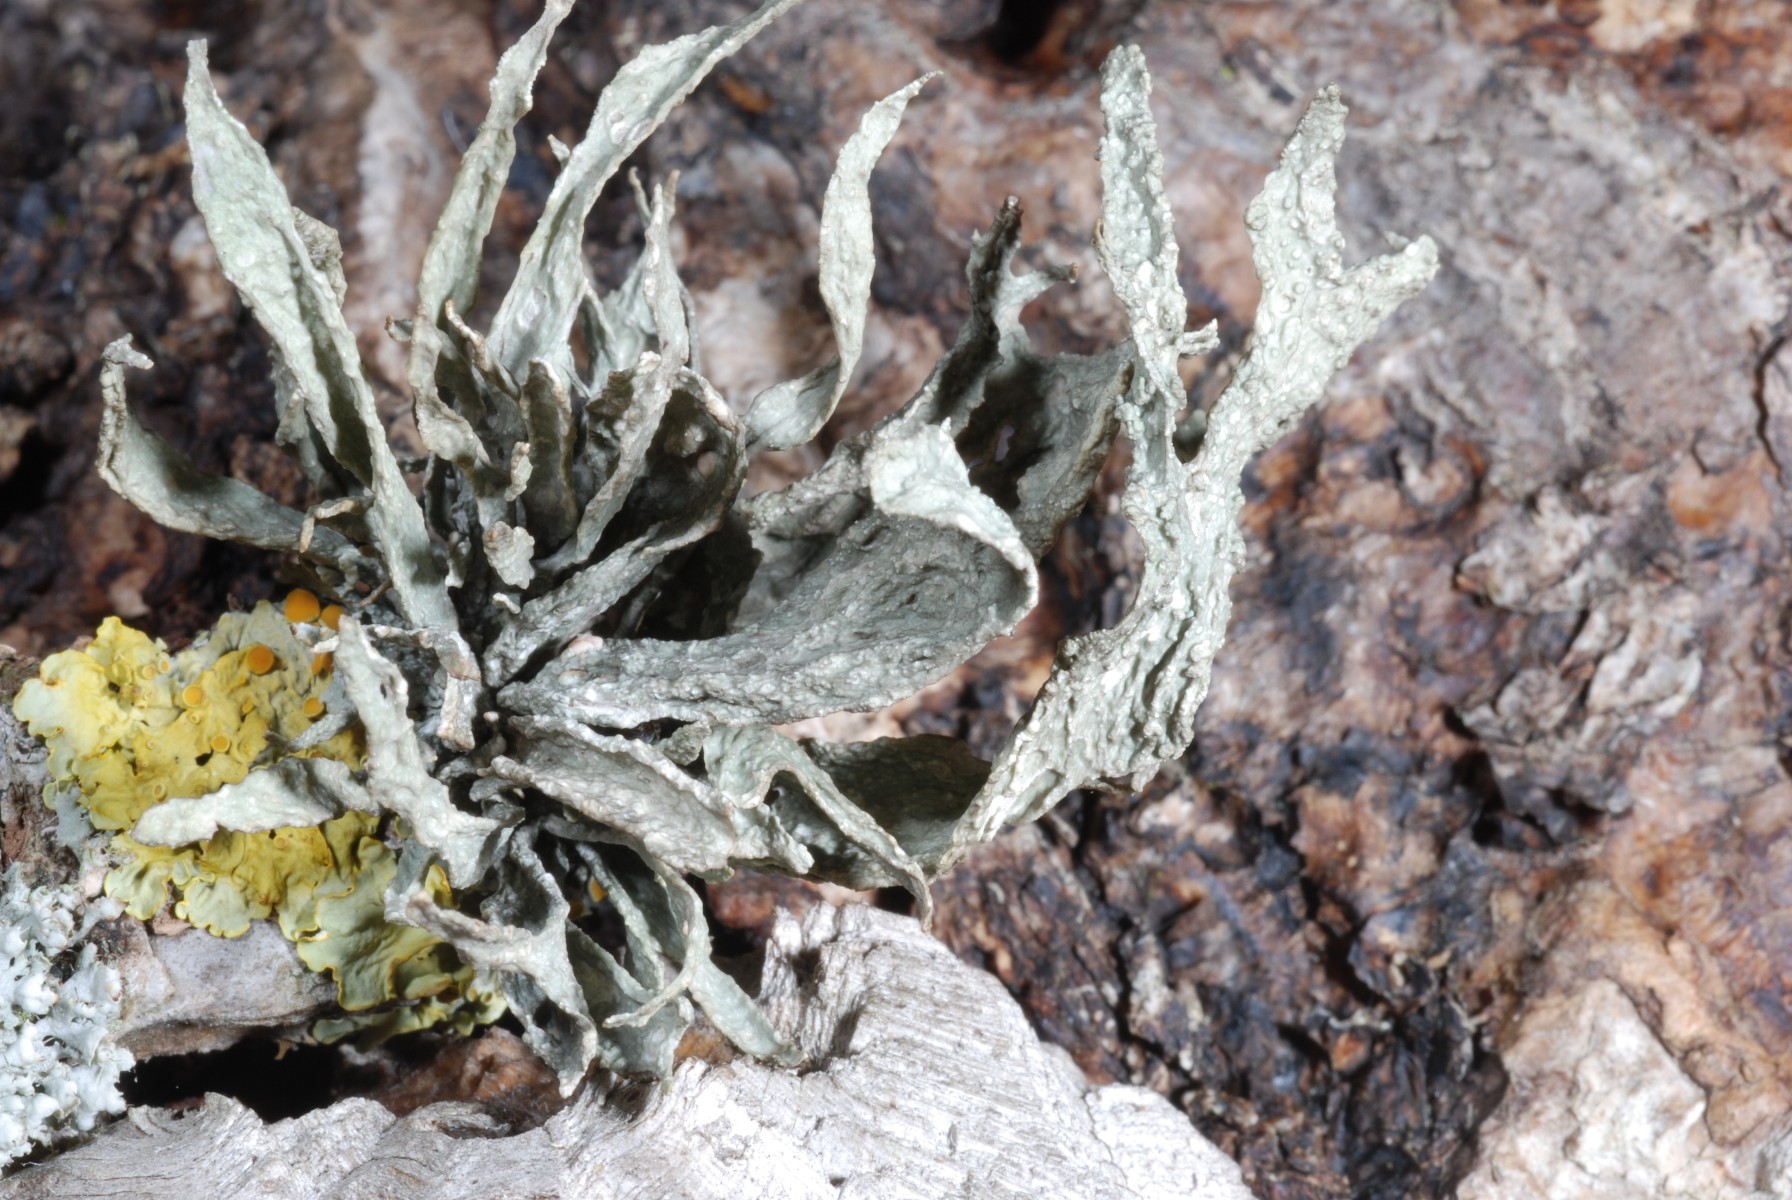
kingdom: Fungi
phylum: Ascomycota
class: Lecanoromycetes
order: Lecanorales
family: Ramalinaceae
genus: Ramalina
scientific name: Ramalina fraxinea
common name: stor grenlav
